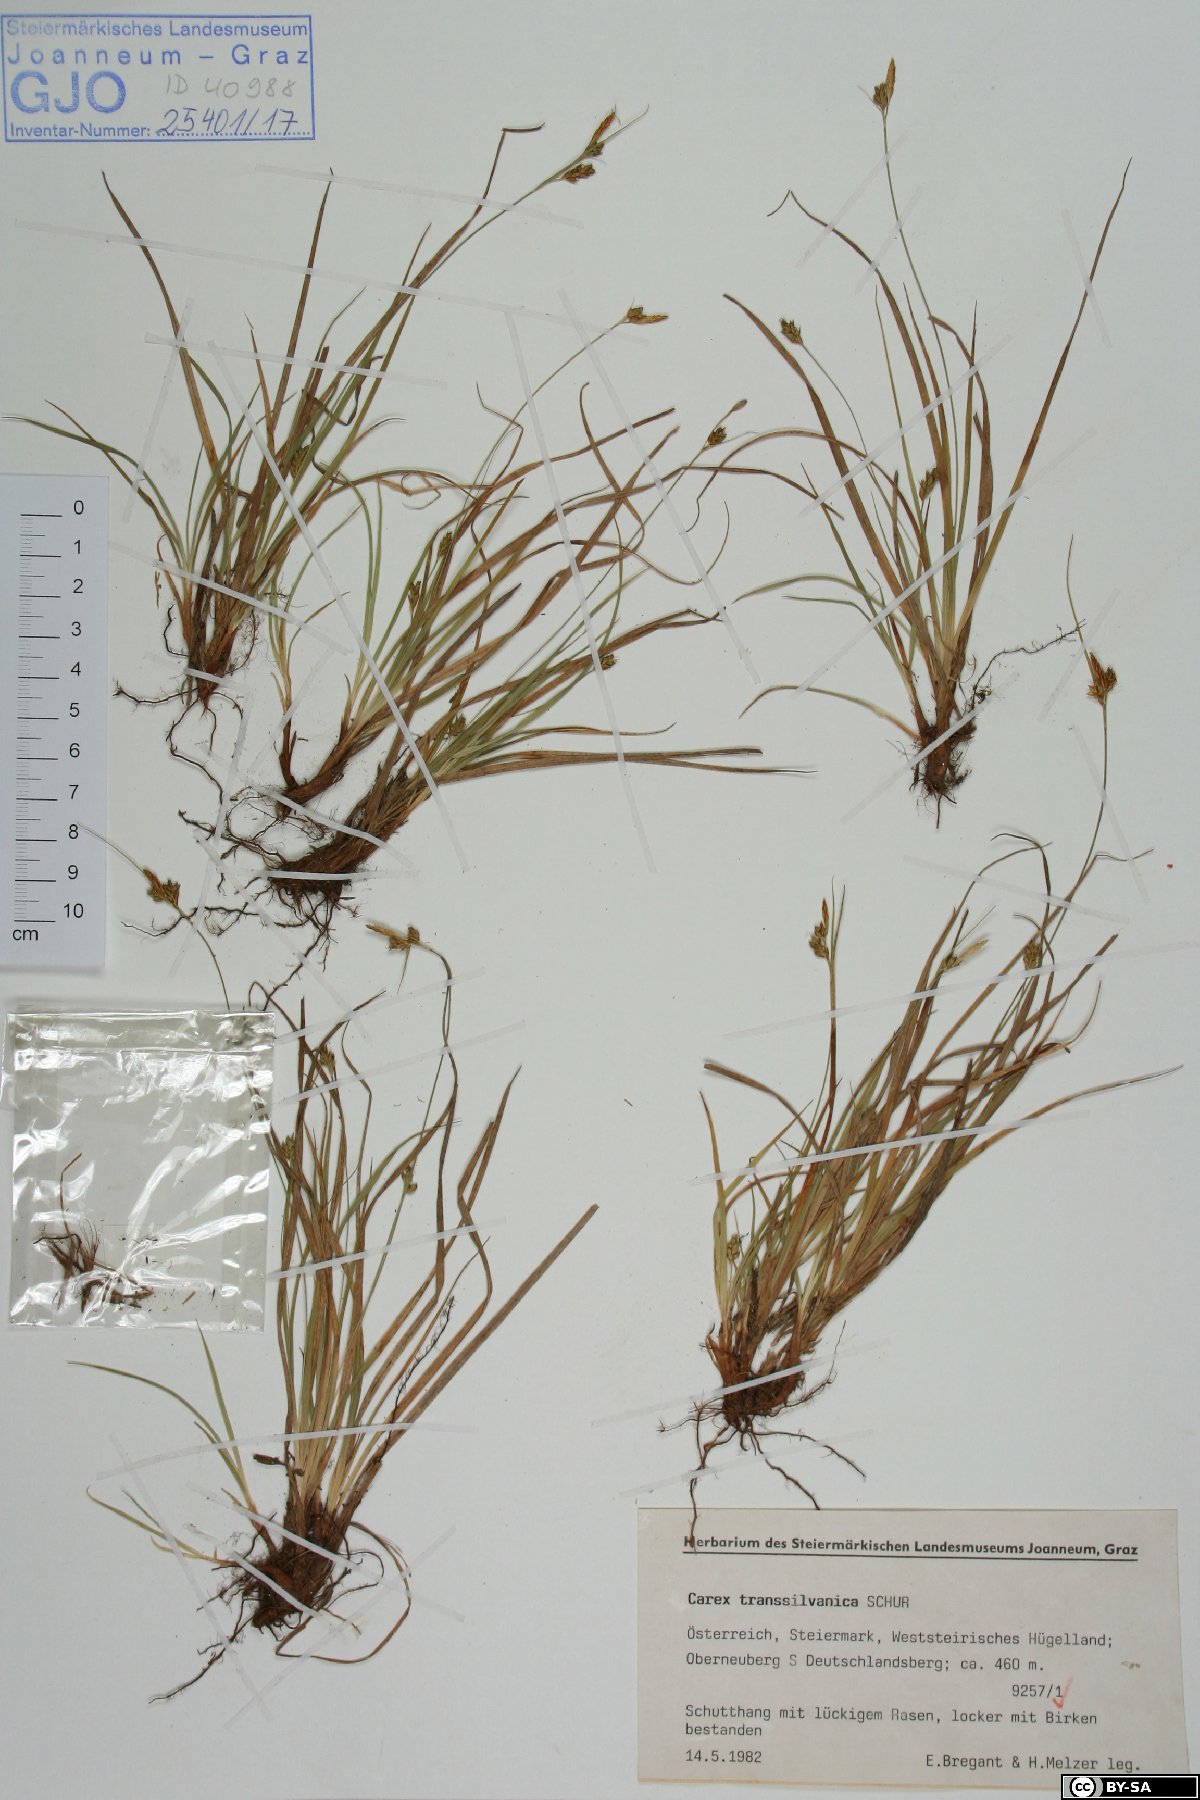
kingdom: Plantae
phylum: Tracheophyta
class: Liliopsida
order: Poales
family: Cyperaceae
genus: Carex
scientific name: Carex depressa
